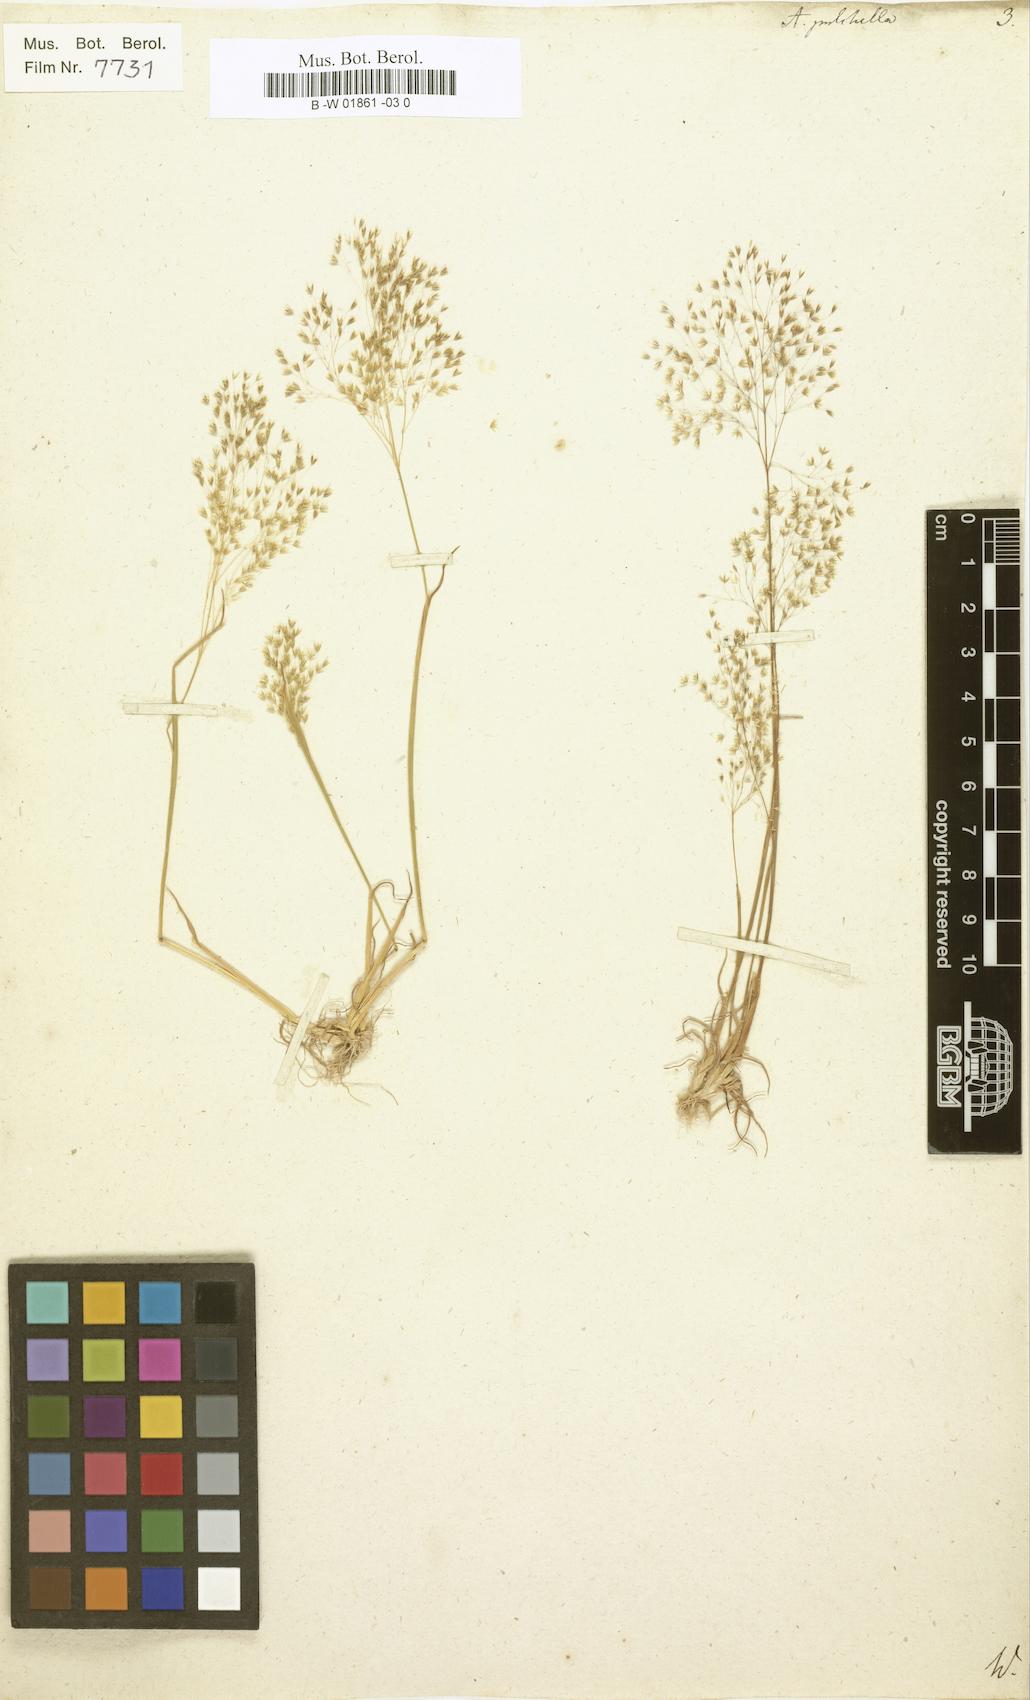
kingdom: Plantae
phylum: Tracheophyta
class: Liliopsida
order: Poales
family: Poaceae
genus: Aira
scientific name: Aira pulchella
